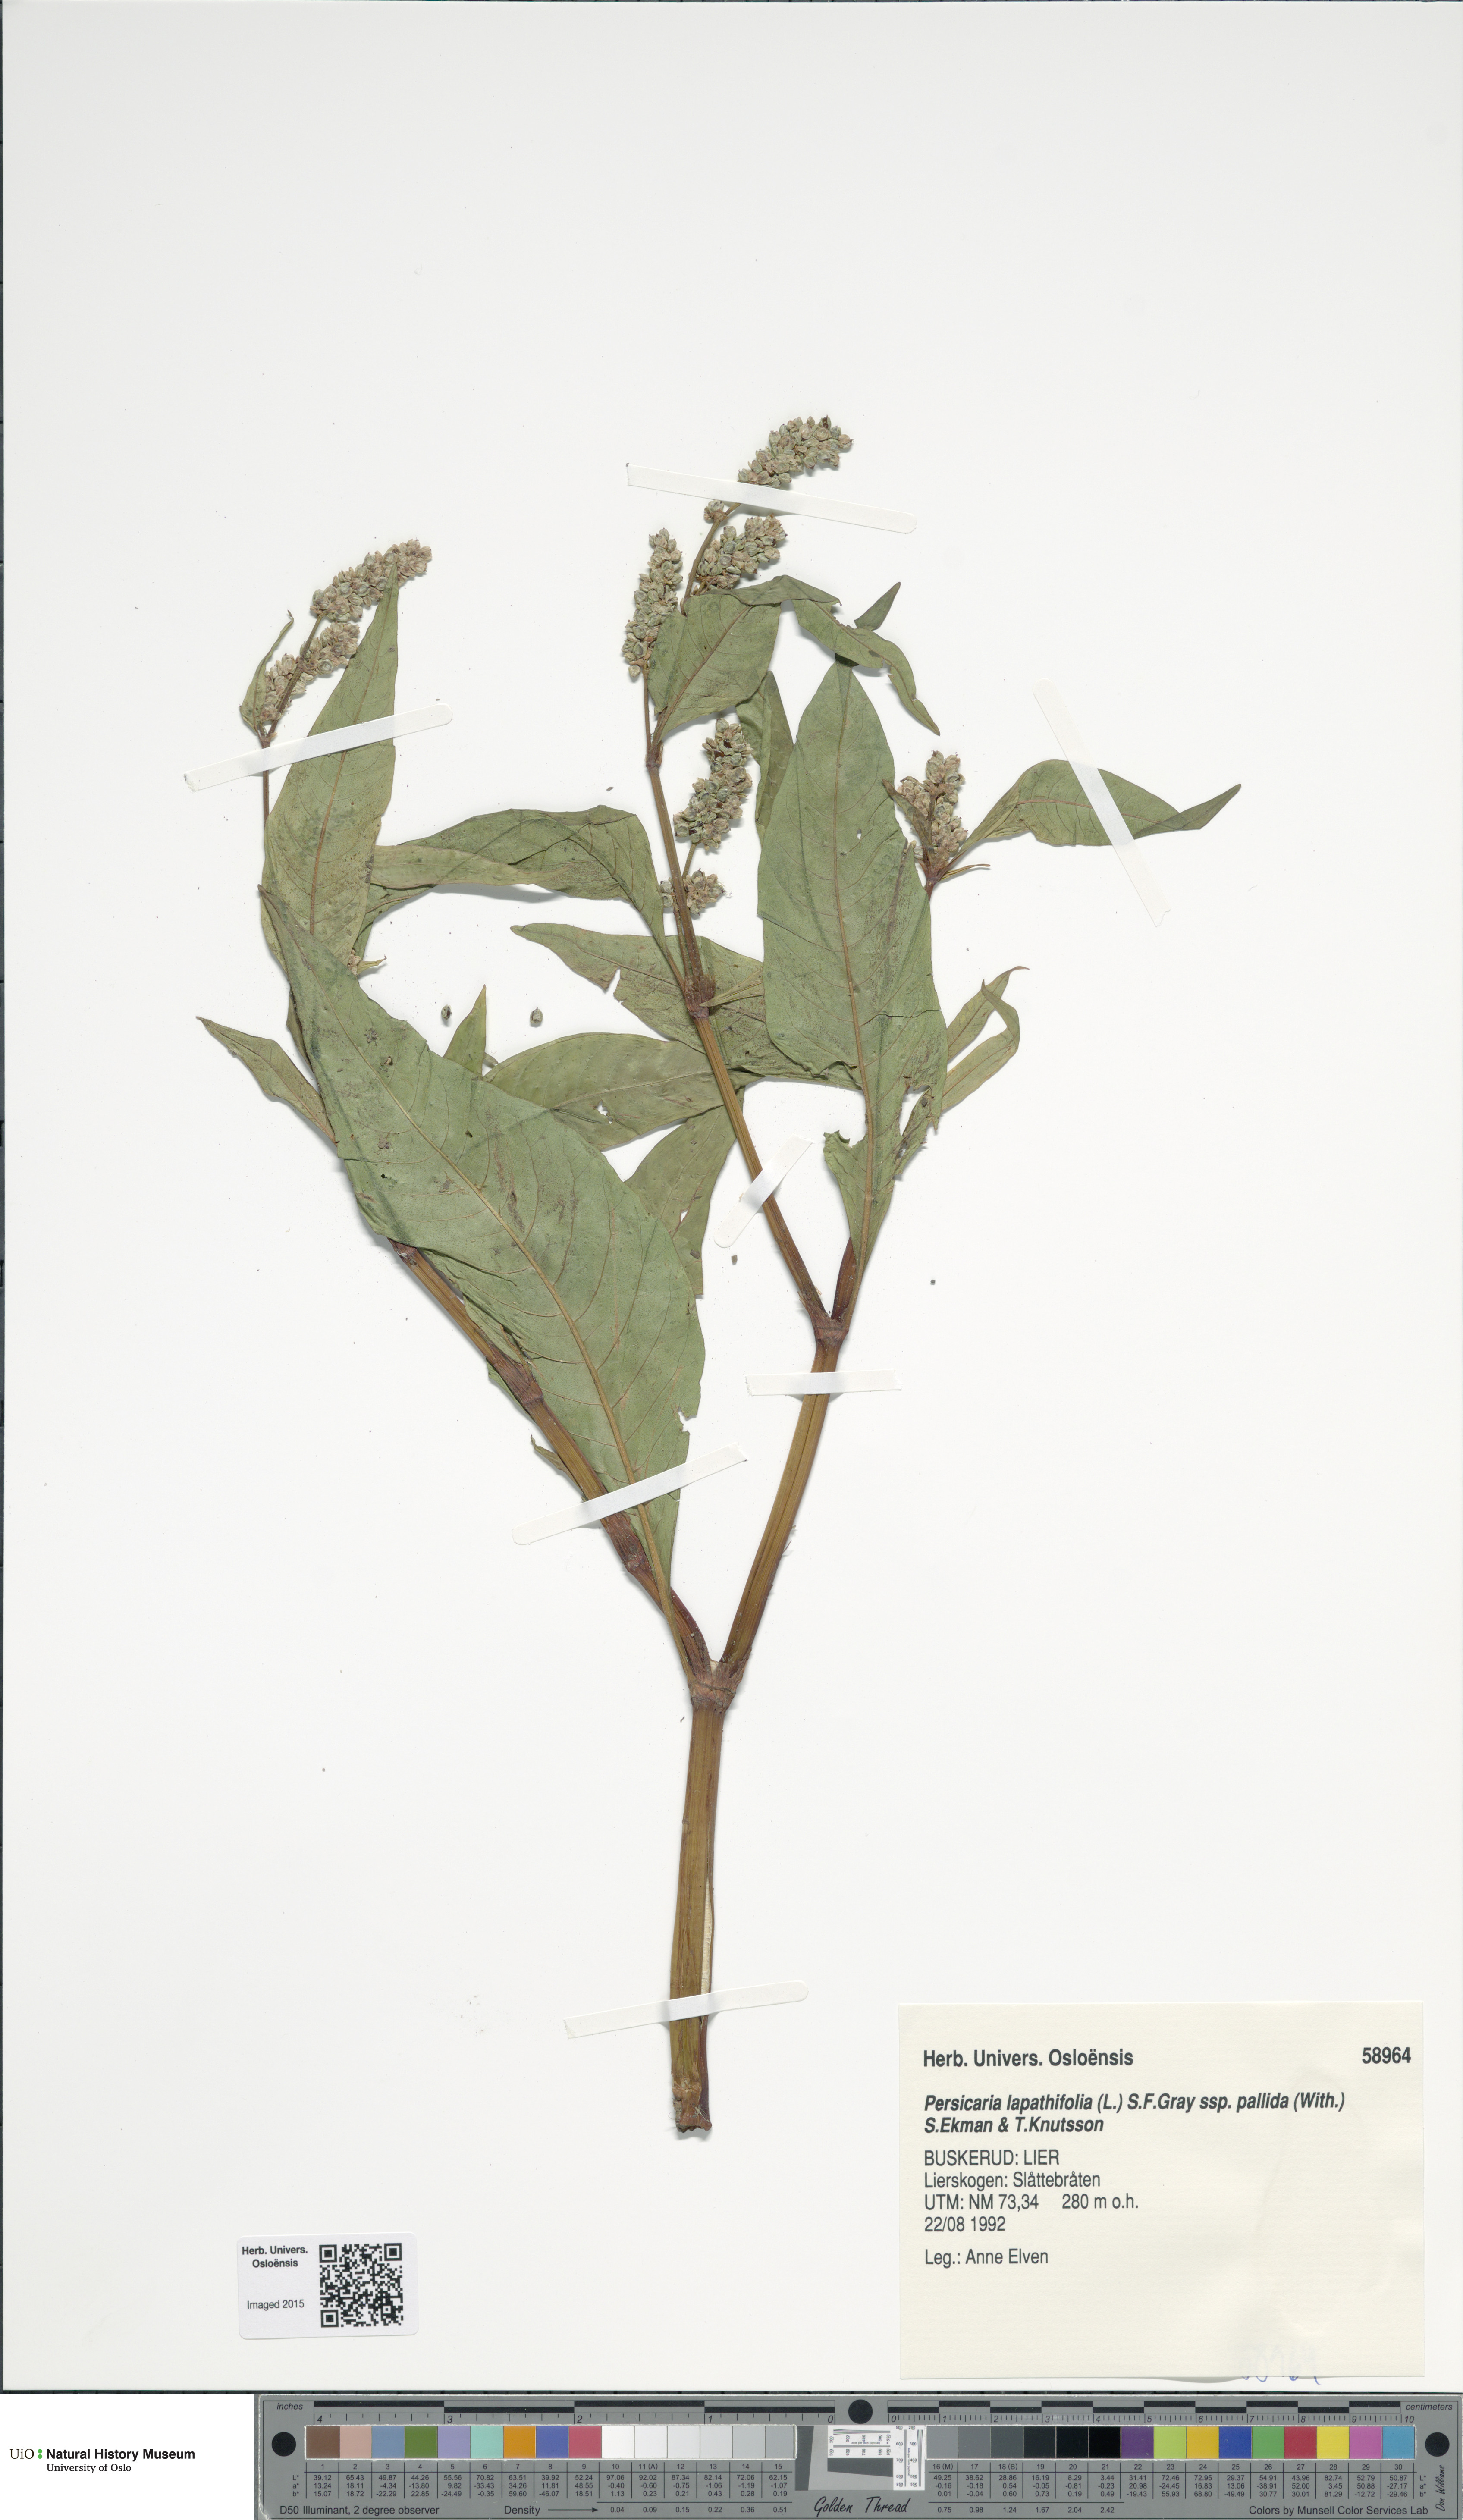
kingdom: Plantae
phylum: Tracheophyta
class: Magnoliopsida
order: Caryophyllales
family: Polygonaceae
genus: Persicaria
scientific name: Persicaria lapathifolia
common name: Curlytop knotweed
